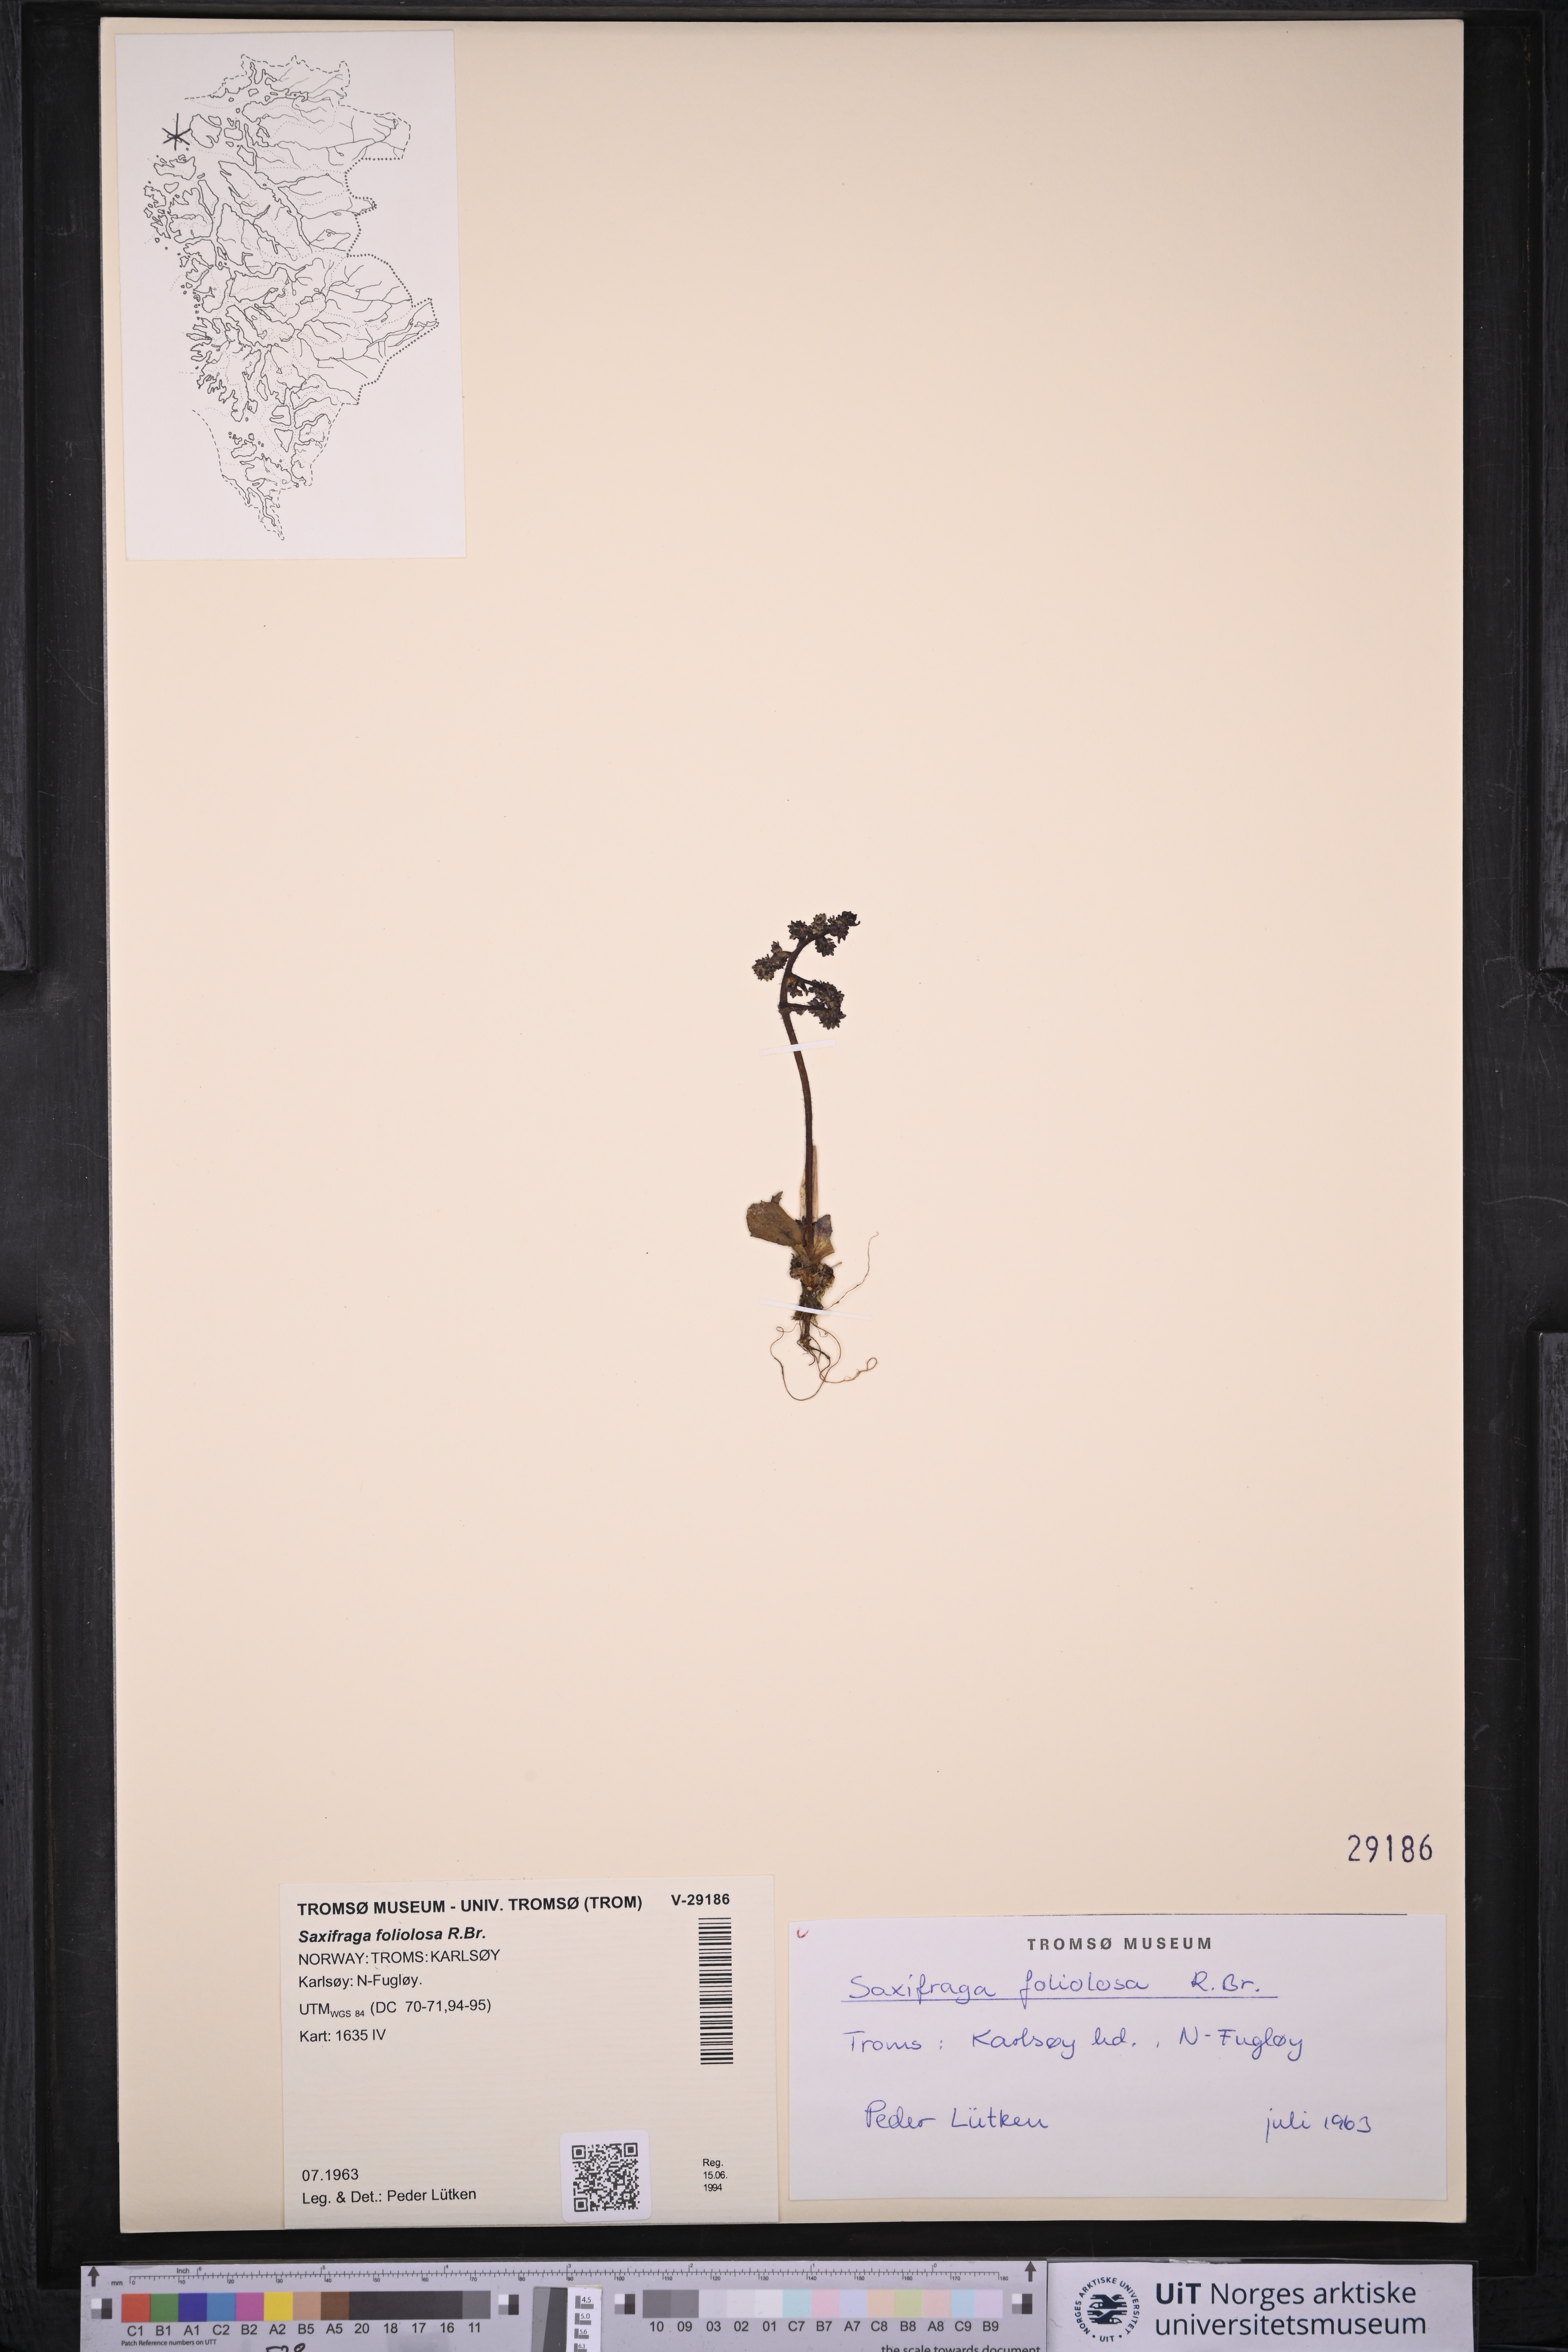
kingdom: Plantae
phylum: Tracheophyta
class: Magnoliopsida
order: Saxifragales
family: Saxifragaceae
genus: Micranthes
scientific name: Micranthes foliolosa
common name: Leafystem saxifrage
